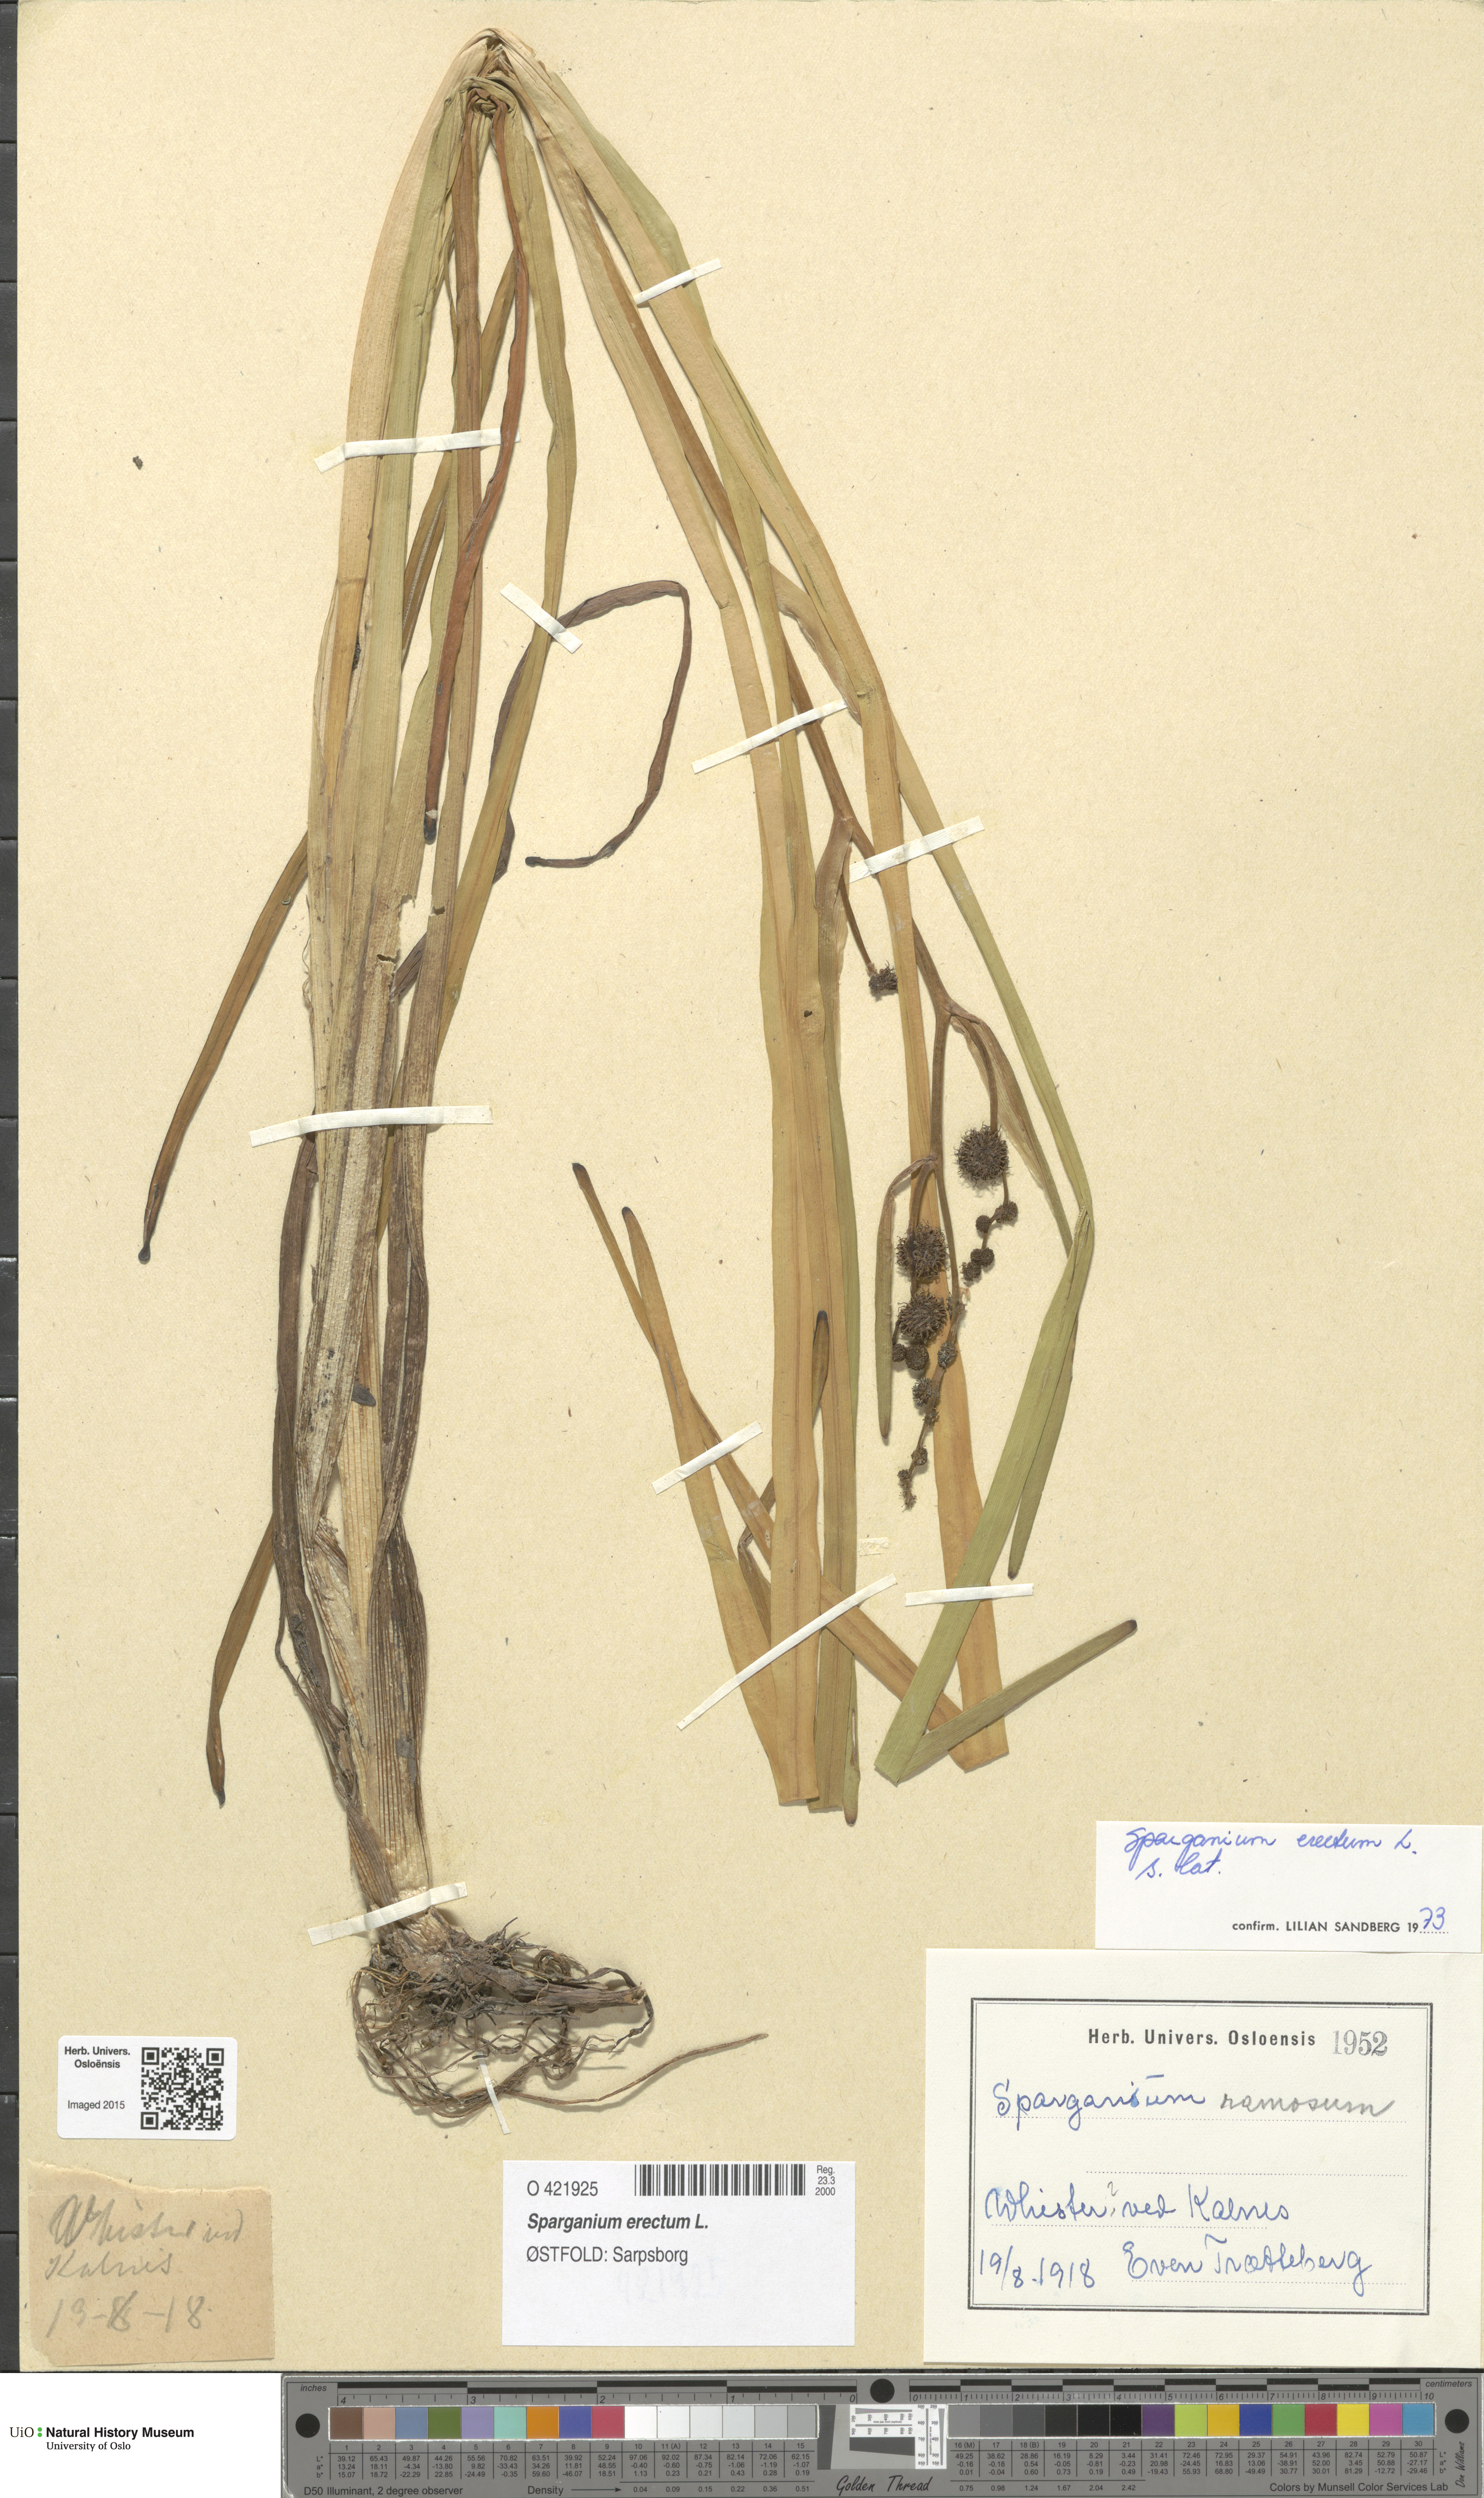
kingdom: Plantae
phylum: Tracheophyta
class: Liliopsida
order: Poales
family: Typhaceae
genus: Sparganium
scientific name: Sparganium erectum
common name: Branched bur-reed
